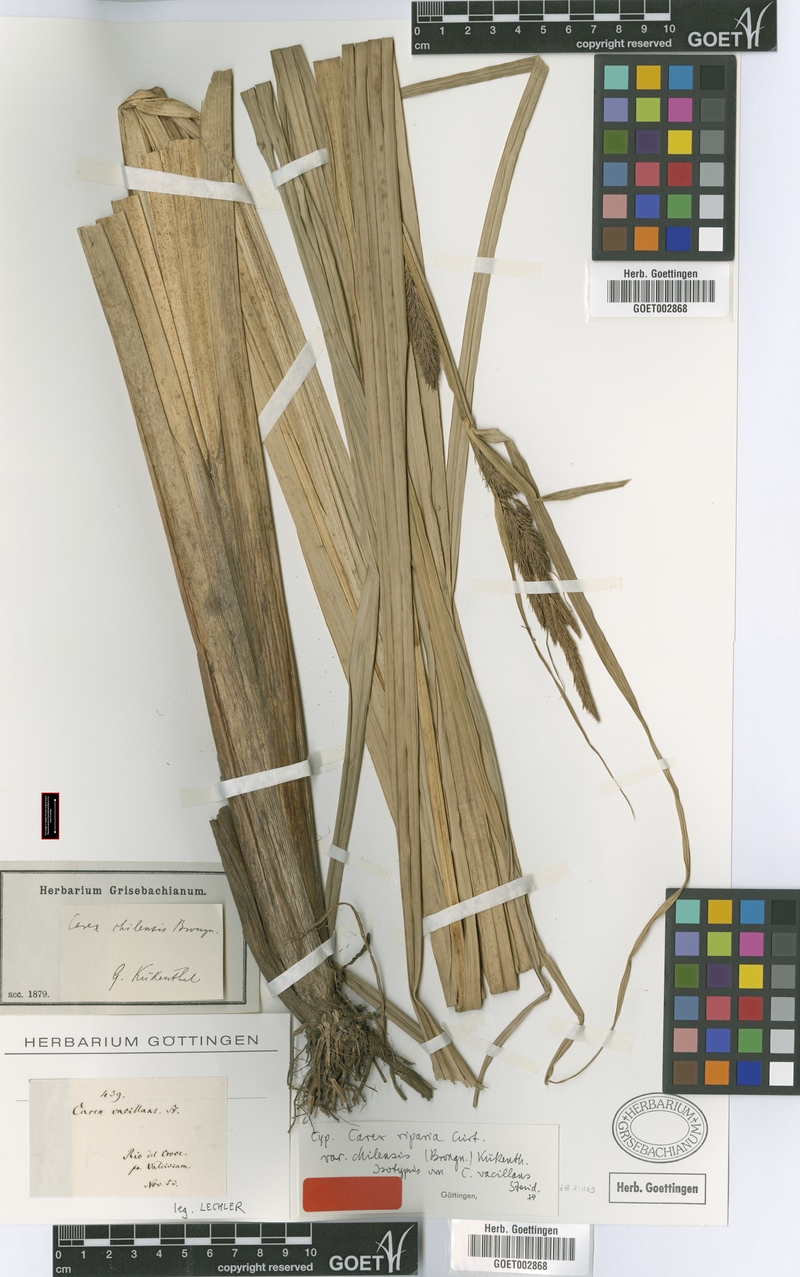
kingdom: Plantae
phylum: Tracheophyta
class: Liliopsida
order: Poales
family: Cyperaceae
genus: Carex
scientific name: Carex chilensis
